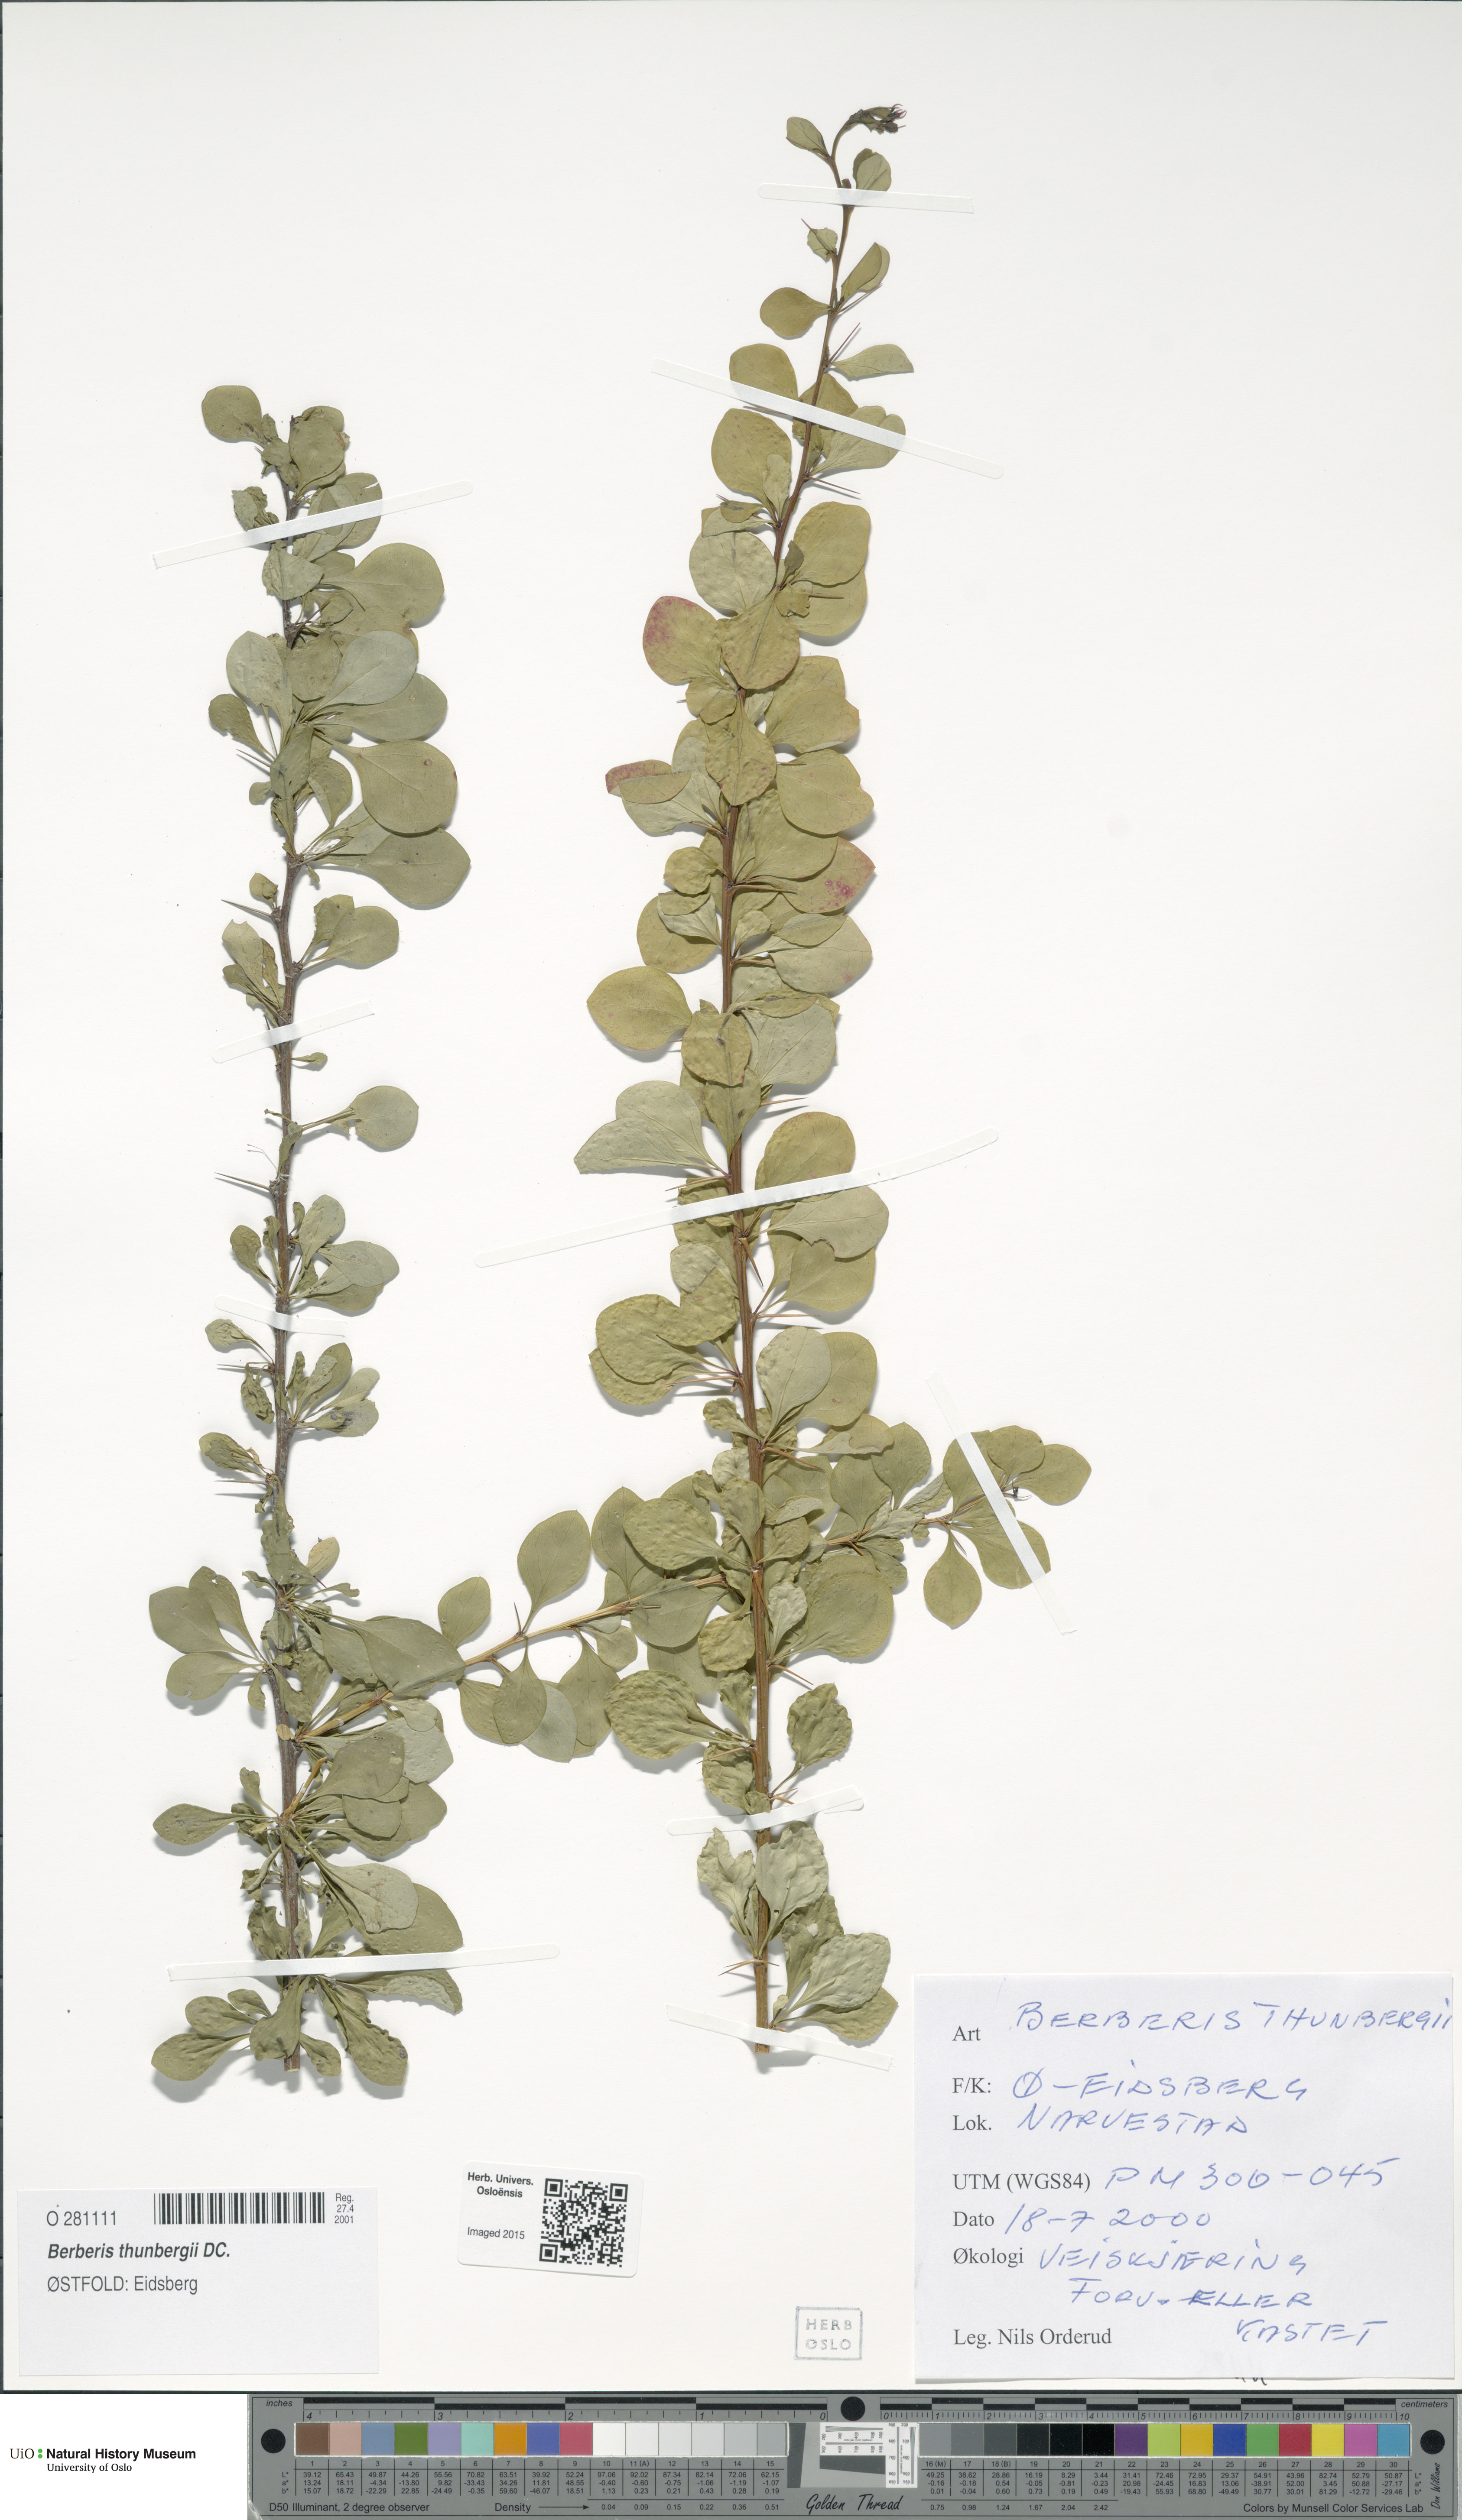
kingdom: Plantae
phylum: Tracheophyta
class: Magnoliopsida
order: Ranunculales
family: Berberidaceae
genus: Berberis
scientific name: Berberis thunbergii
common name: Japanese barberry
